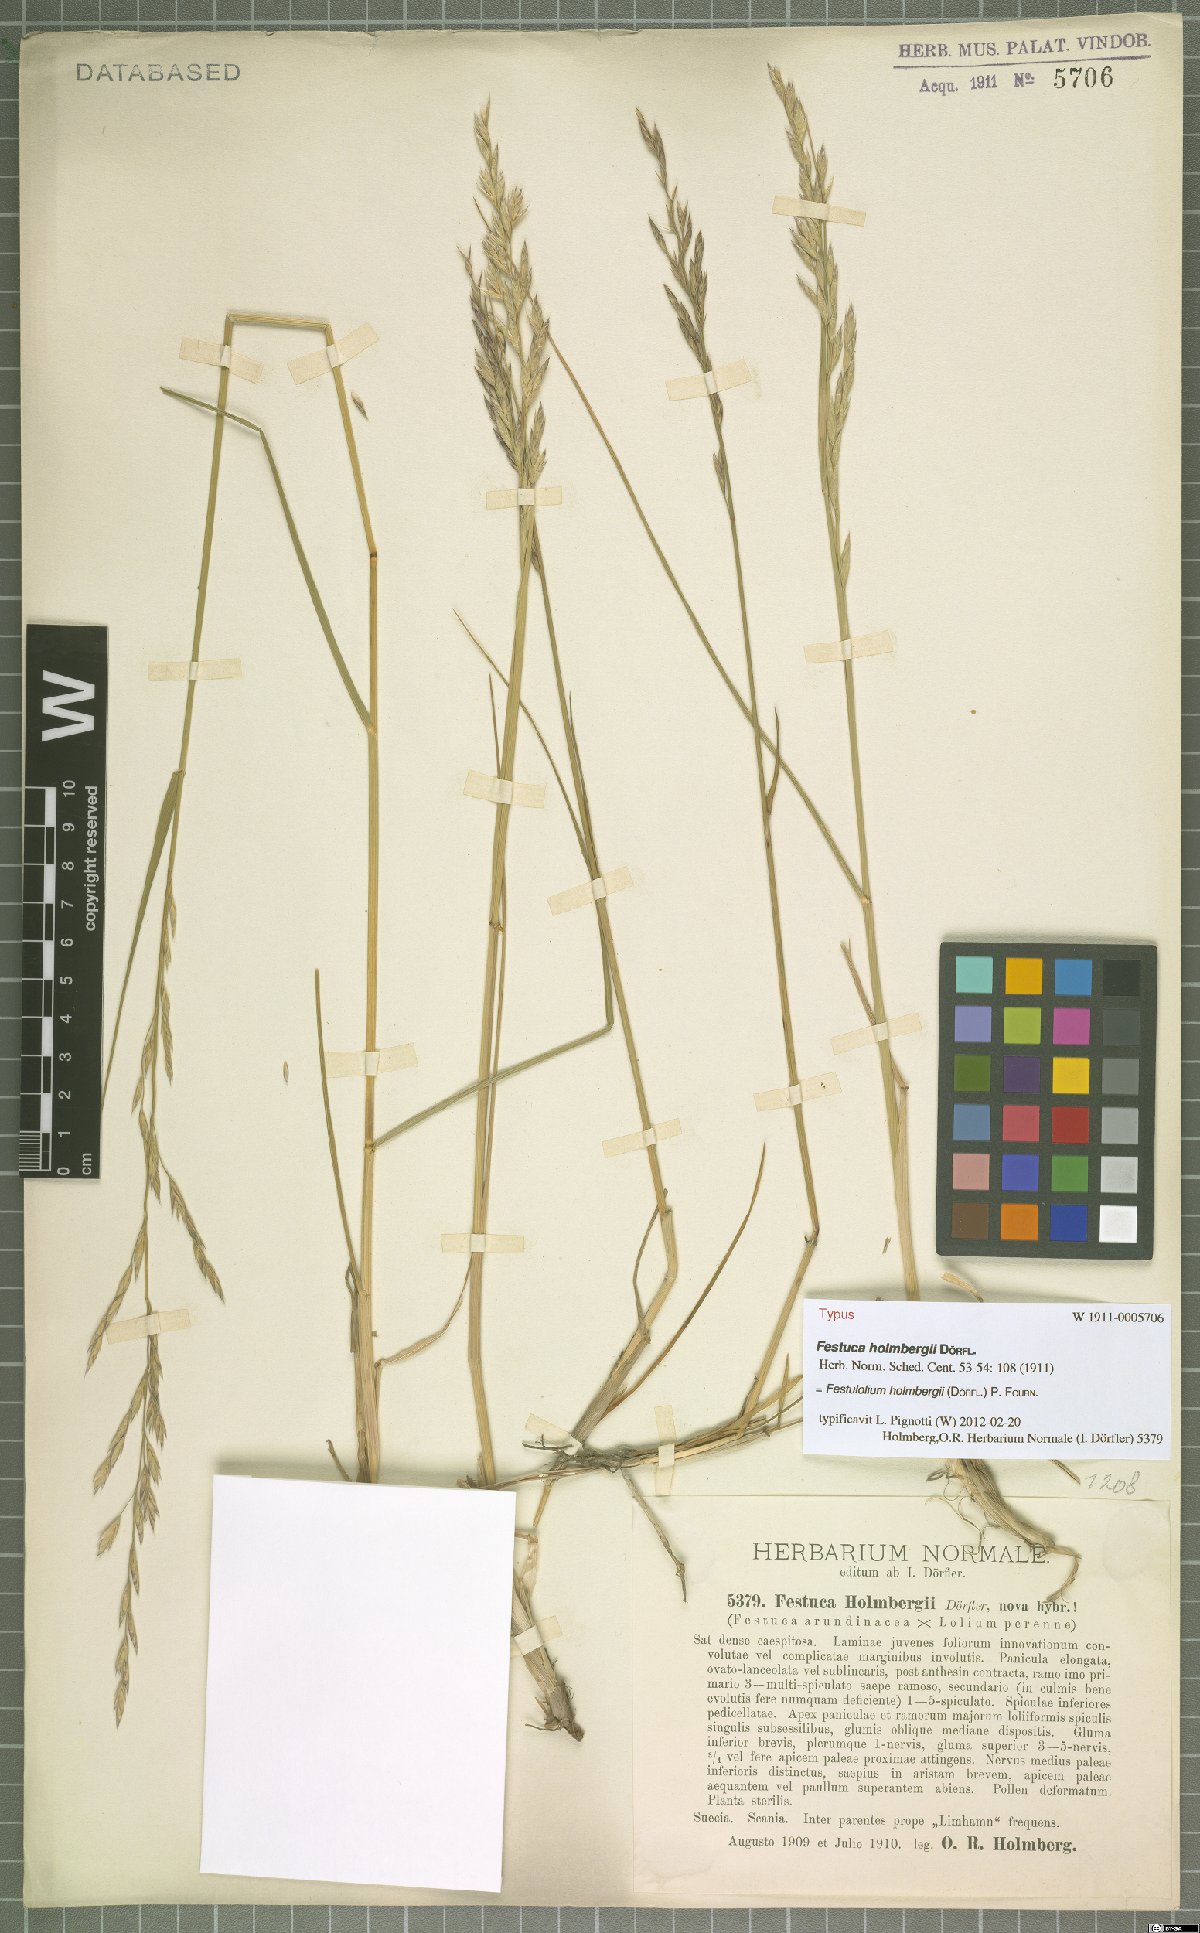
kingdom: Plantae
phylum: Tracheophyta
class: Liliopsida
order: Poales
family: Poaceae
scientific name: Poaceae
